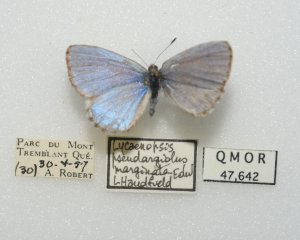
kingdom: Animalia
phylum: Arthropoda
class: Insecta
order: Lepidoptera
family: Lycaenidae
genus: Celastrina
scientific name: Celastrina lucia
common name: Northern Spring Azure
